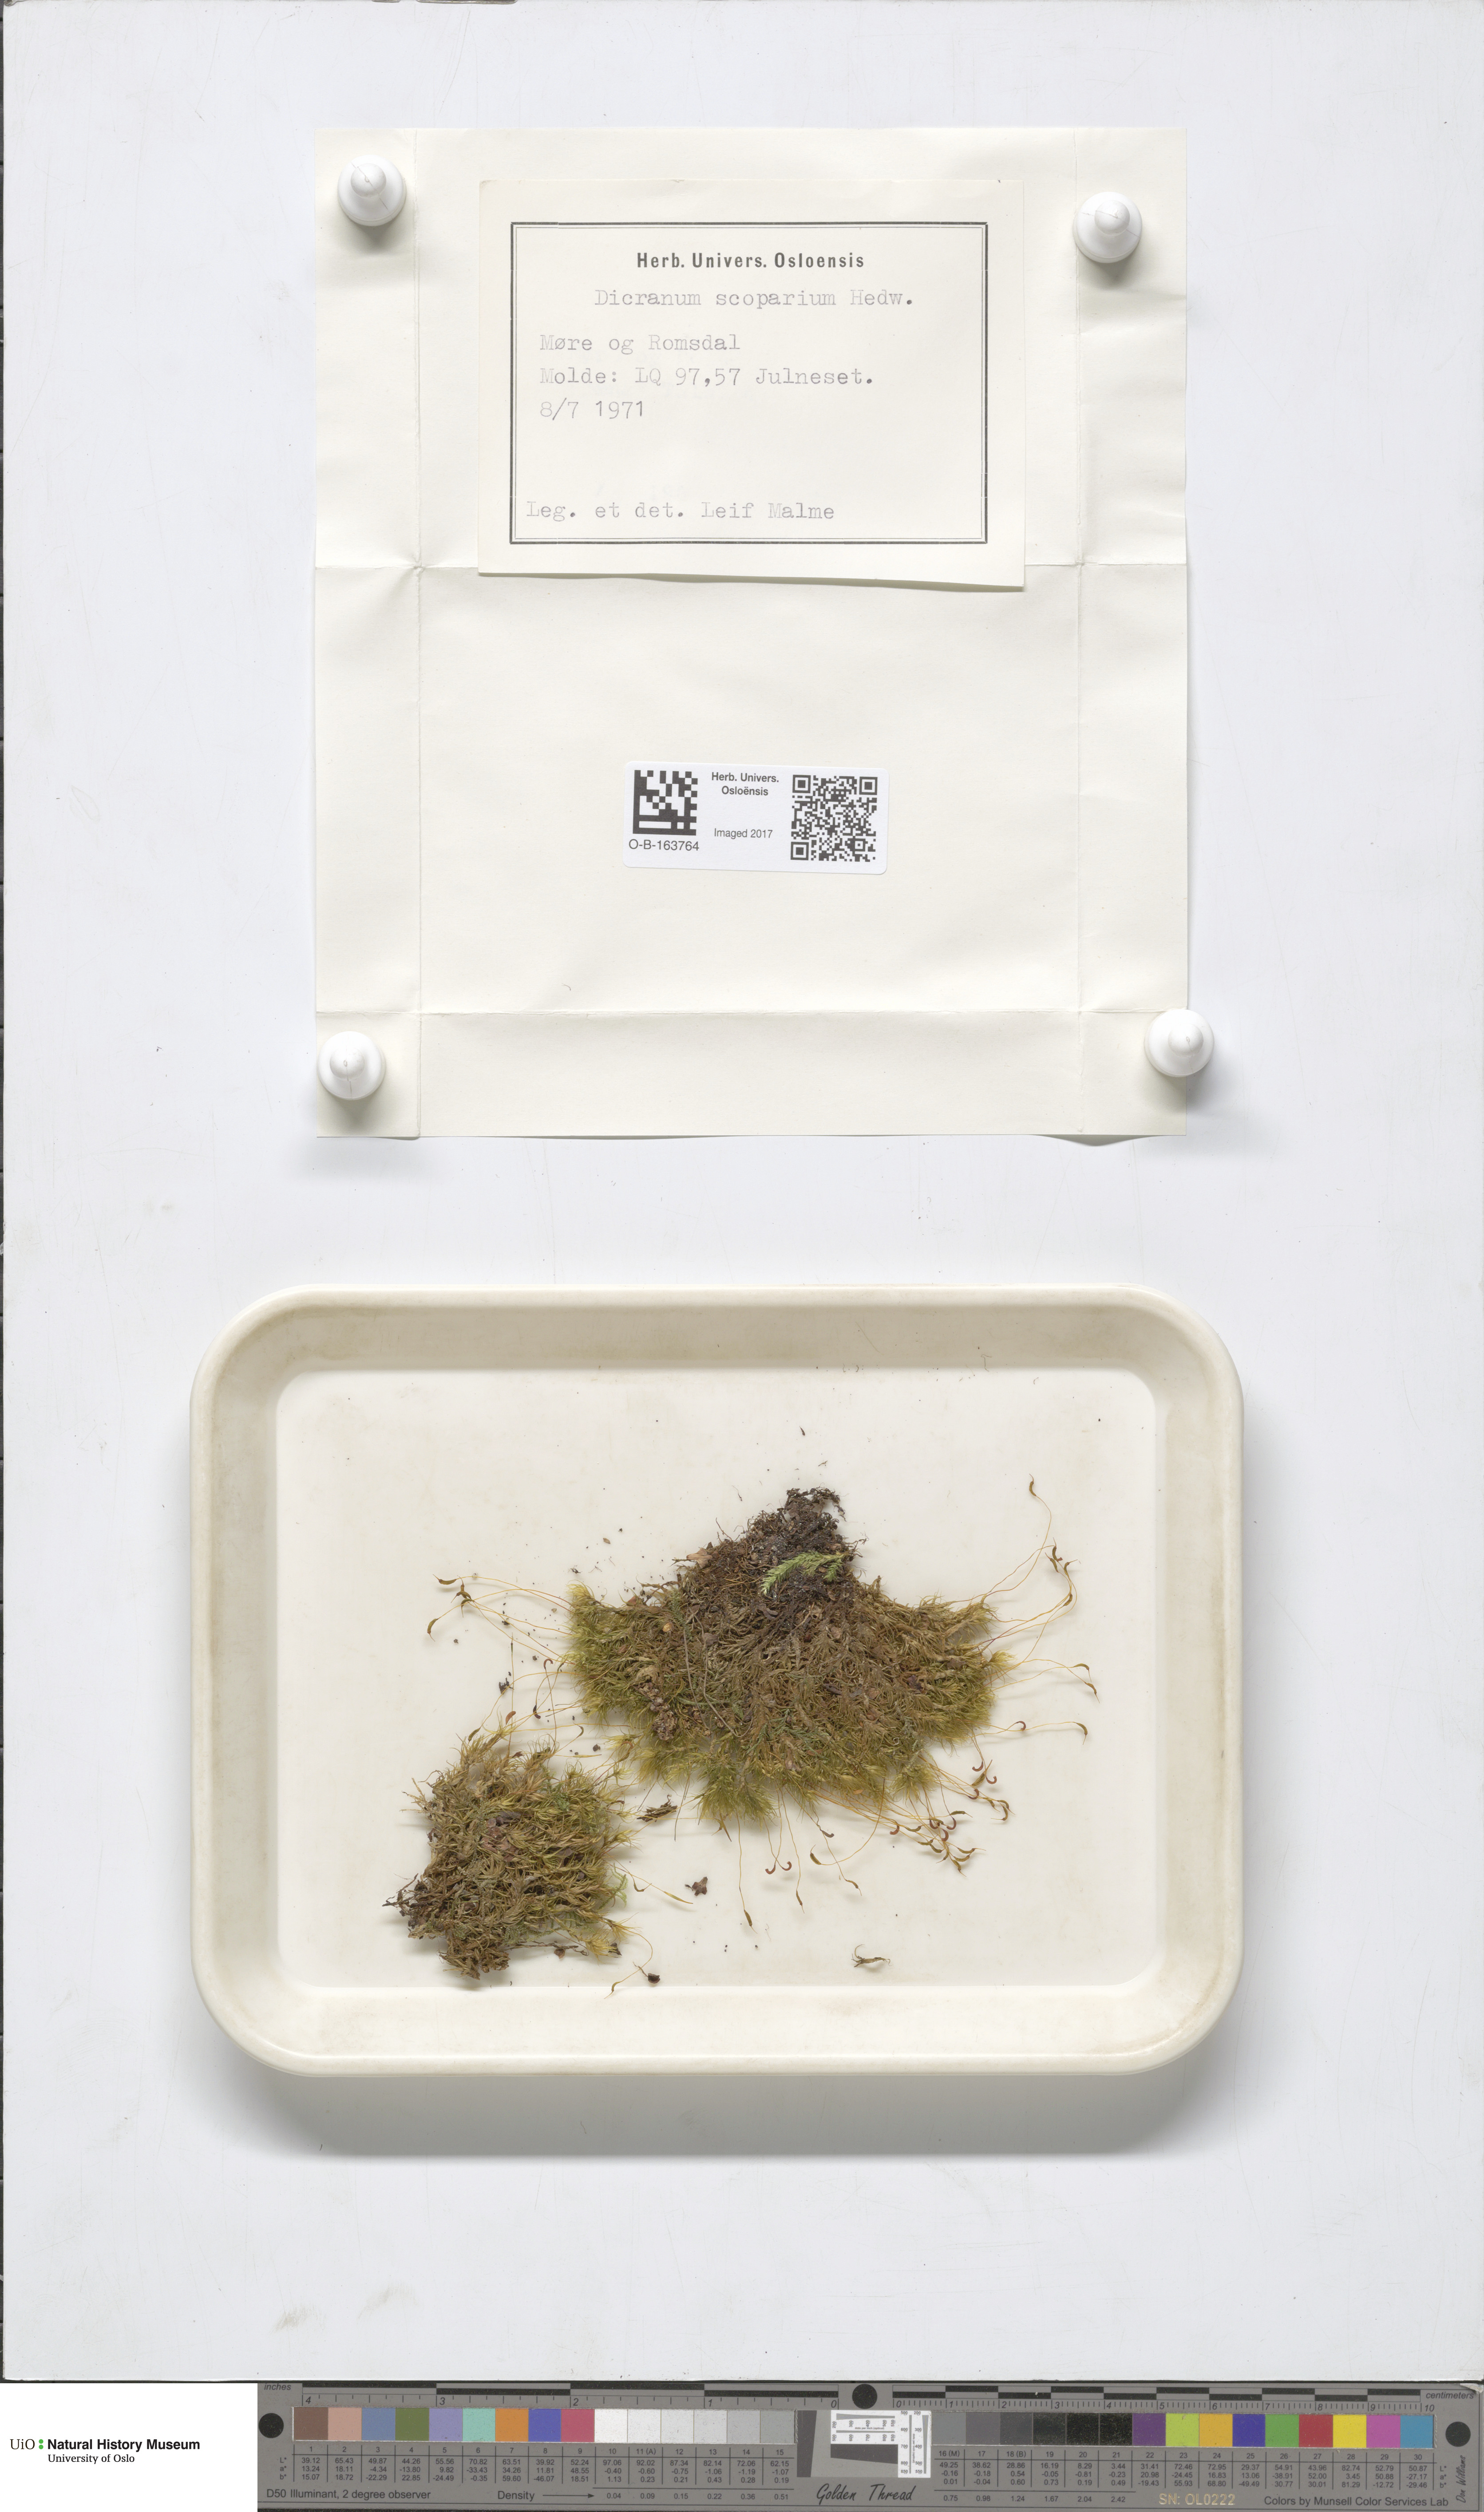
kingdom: Plantae
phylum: Bryophyta
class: Bryopsida
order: Dicranales
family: Dicranaceae
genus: Dicranum
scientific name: Dicranum scoparium
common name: Broom fork-moss
